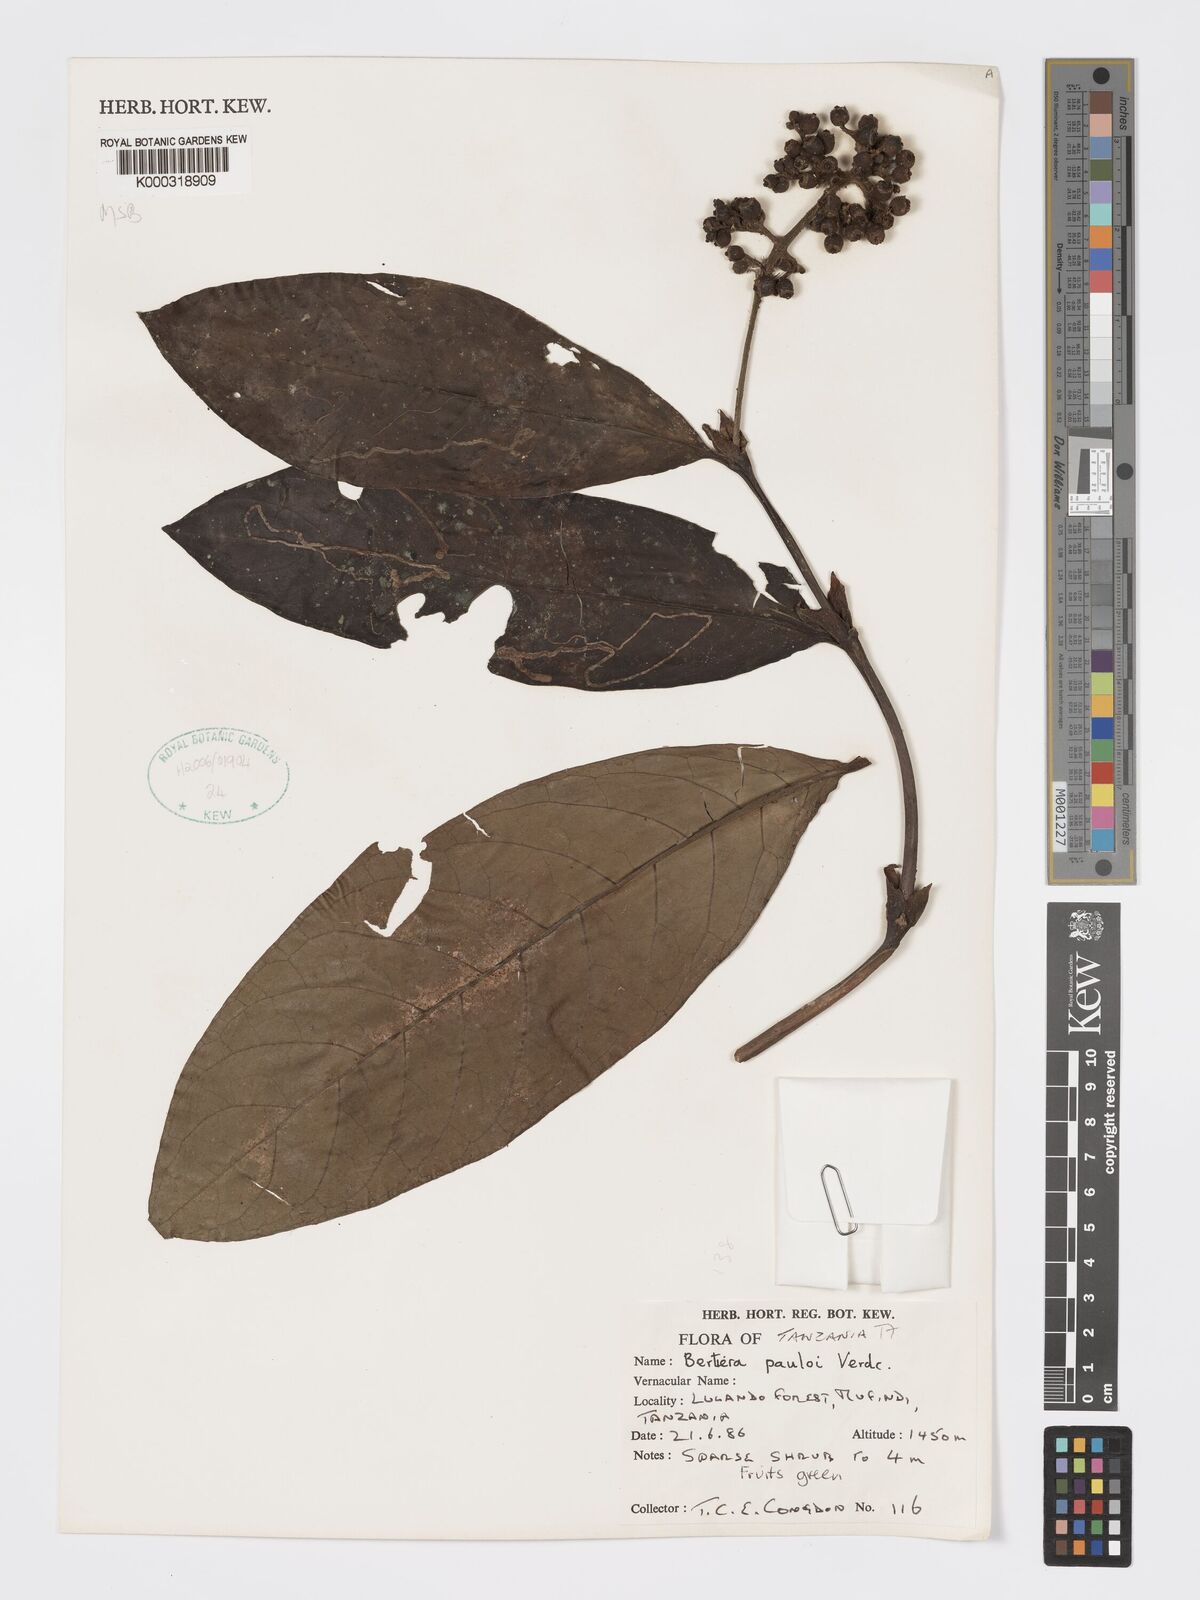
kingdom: Plantae
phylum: Tracheophyta
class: Magnoliopsida
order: Gentianales
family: Rubiaceae
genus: Bertiera
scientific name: Bertiera pauloi
